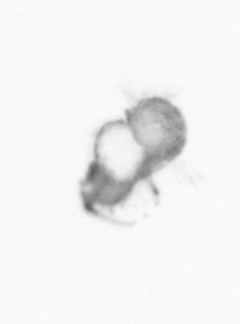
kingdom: Animalia
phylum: Annelida
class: Polychaeta
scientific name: Polychaeta
